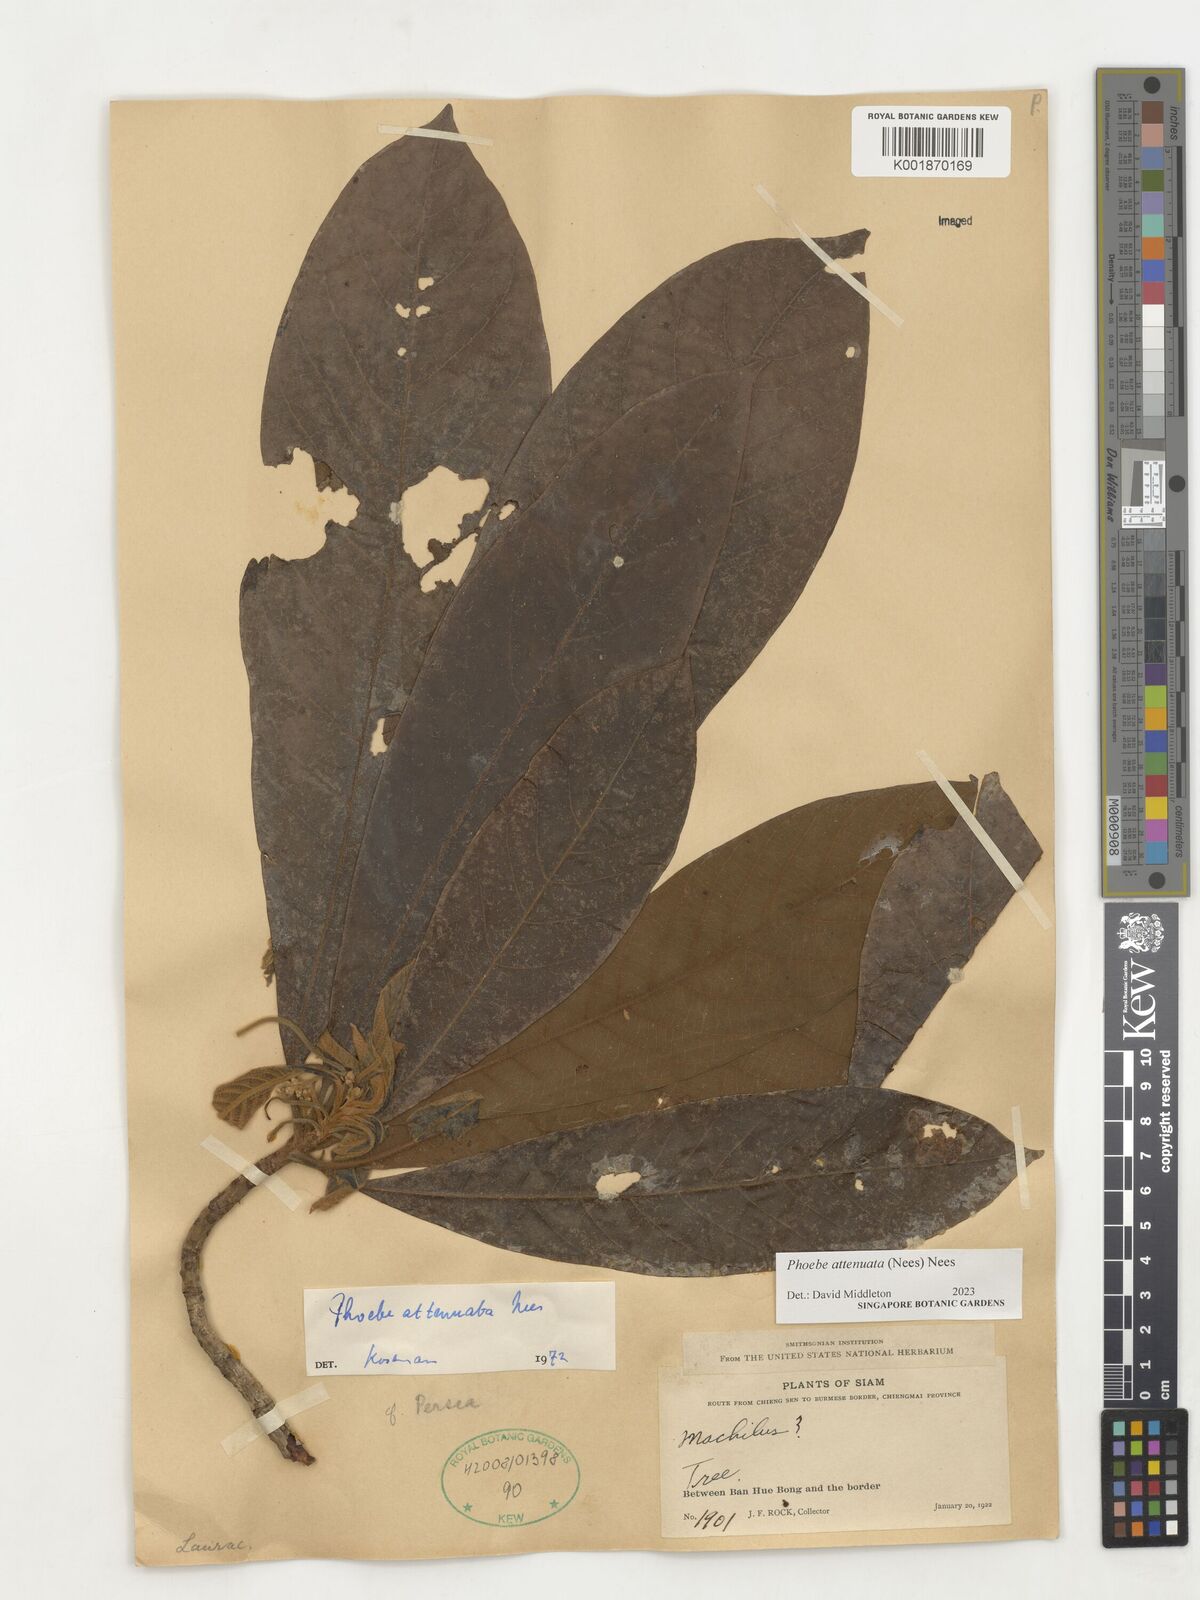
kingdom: Plantae
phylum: Tracheophyta
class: Magnoliopsida
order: Laurales
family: Lauraceae
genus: Phoebe
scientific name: Phoebe attenuata
